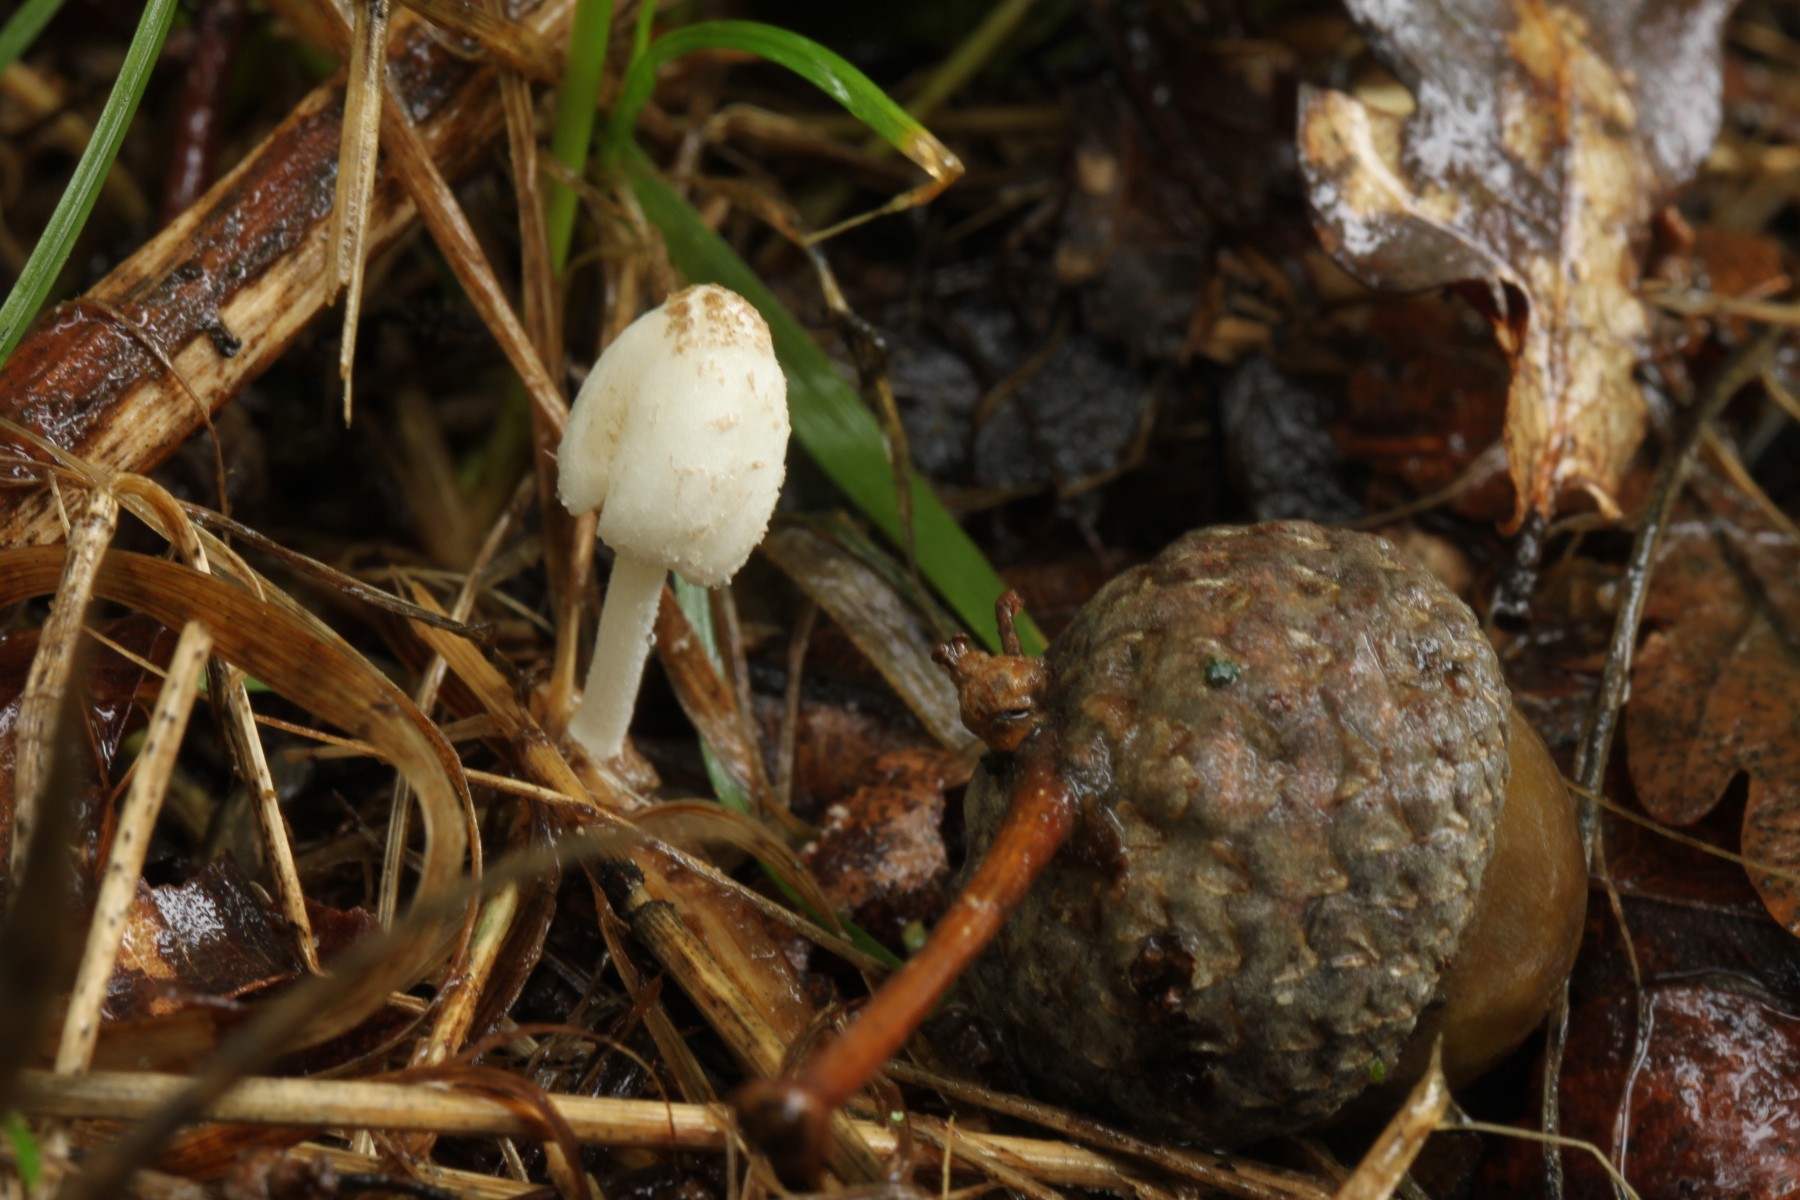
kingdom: Fungi
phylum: Basidiomycota
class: Agaricomycetes
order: Agaricales
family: Psathyrellaceae
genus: Coprinopsis
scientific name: Coprinopsis pseudofriesii
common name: gulfnugget blækhat
